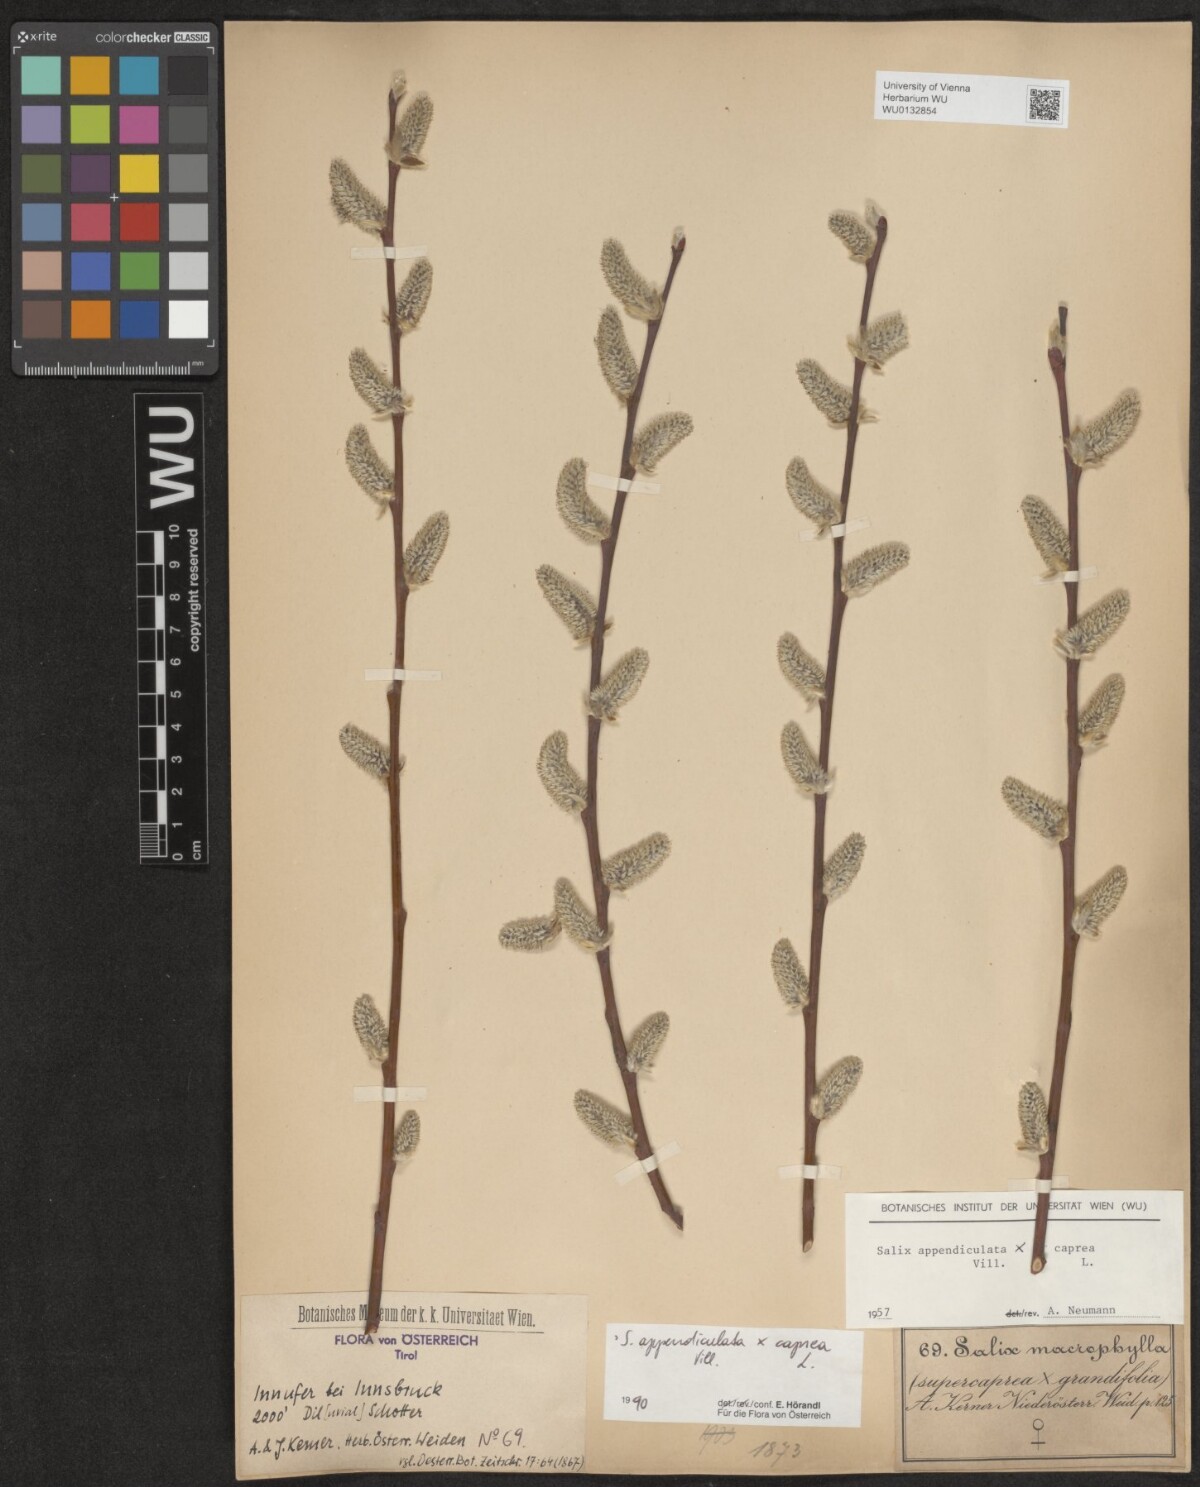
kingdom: Plantae
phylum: Tracheophyta
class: Magnoliopsida
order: Malpighiales
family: Salicaceae
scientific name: Salicaceae
